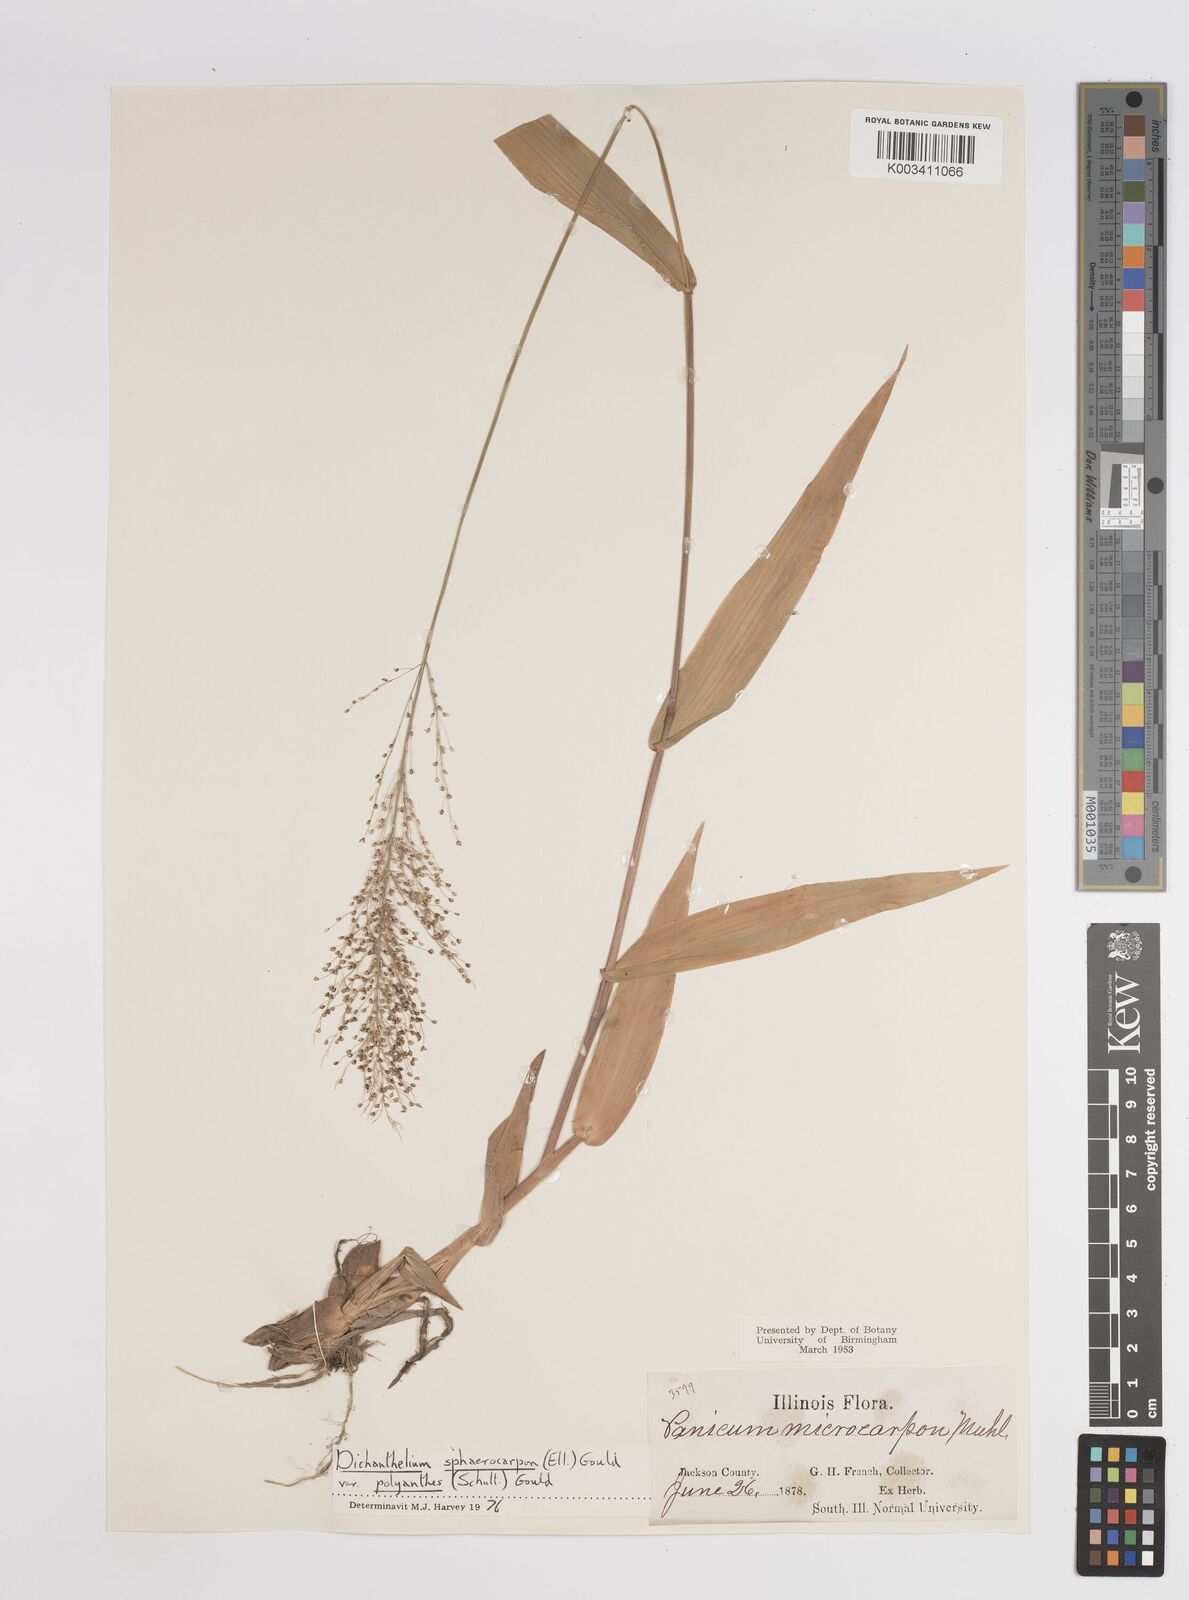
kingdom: Plantae
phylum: Tracheophyta
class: Liliopsida
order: Poales
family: Poaceae
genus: Dichanthelium
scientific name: Dichanthelium polyanthes
